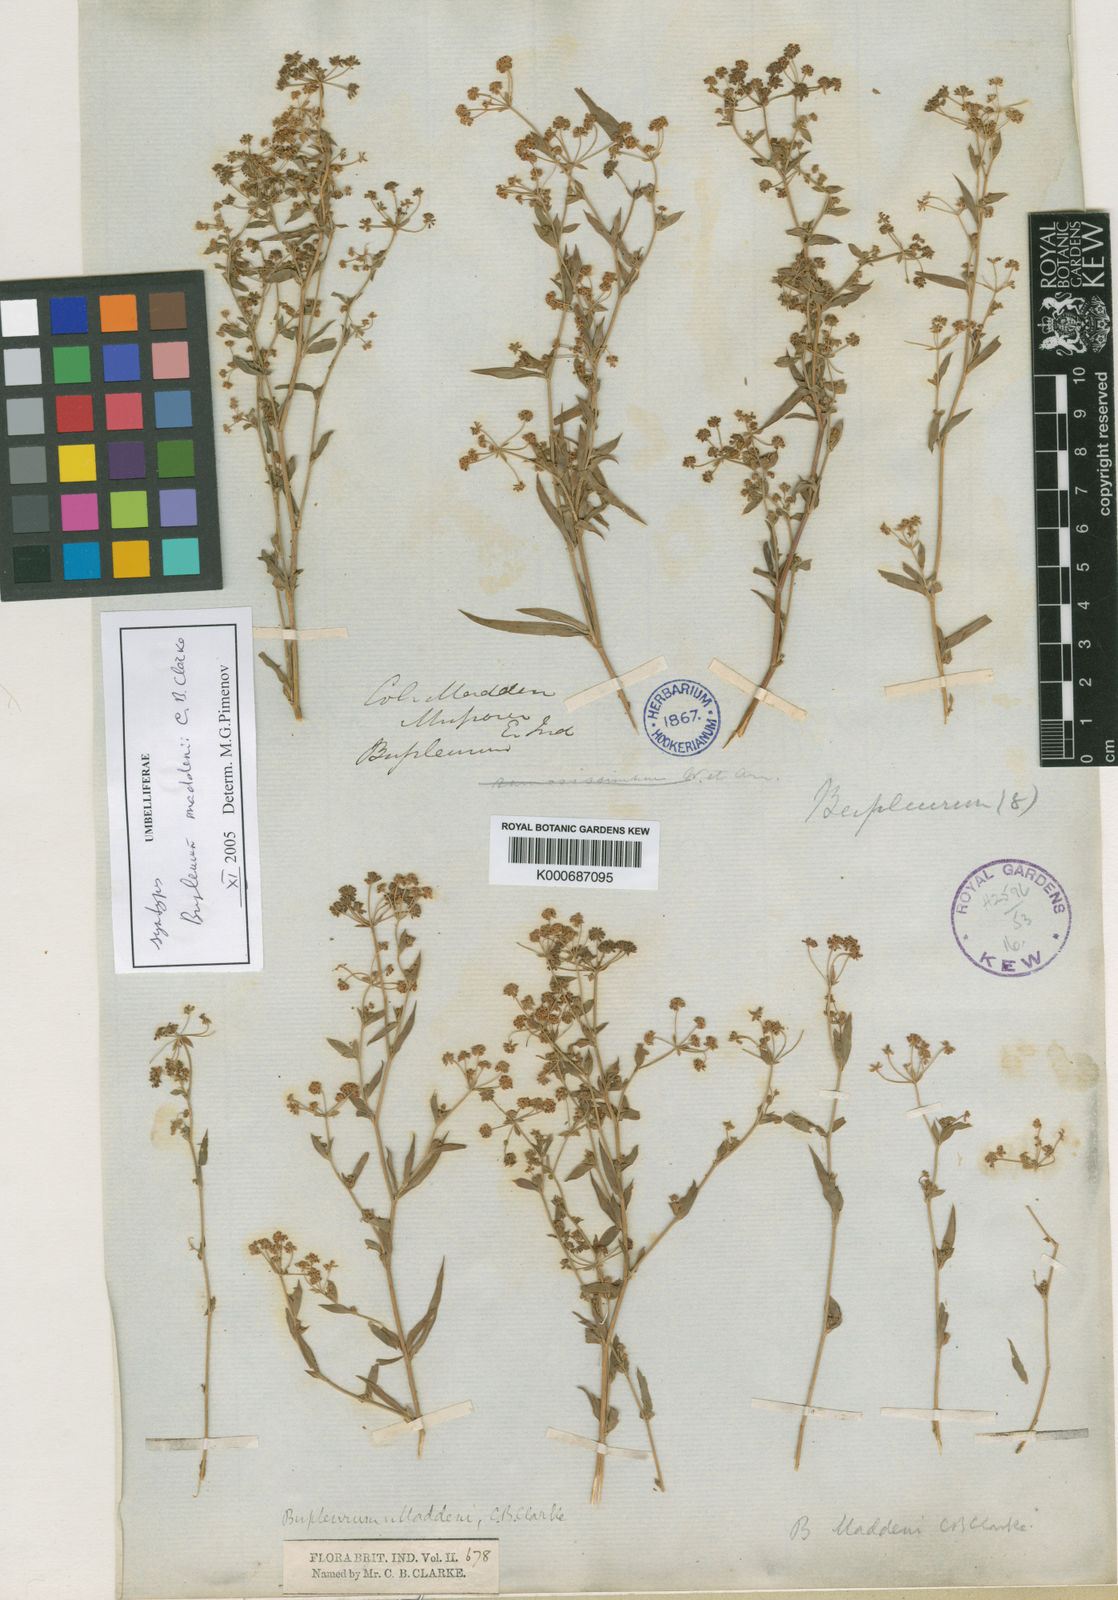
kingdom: Plantae
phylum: Tracheophyta
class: Magnoliopsida
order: Apiales
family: Apiaceae
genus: Bupleurum
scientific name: Bupleurum maddenii
